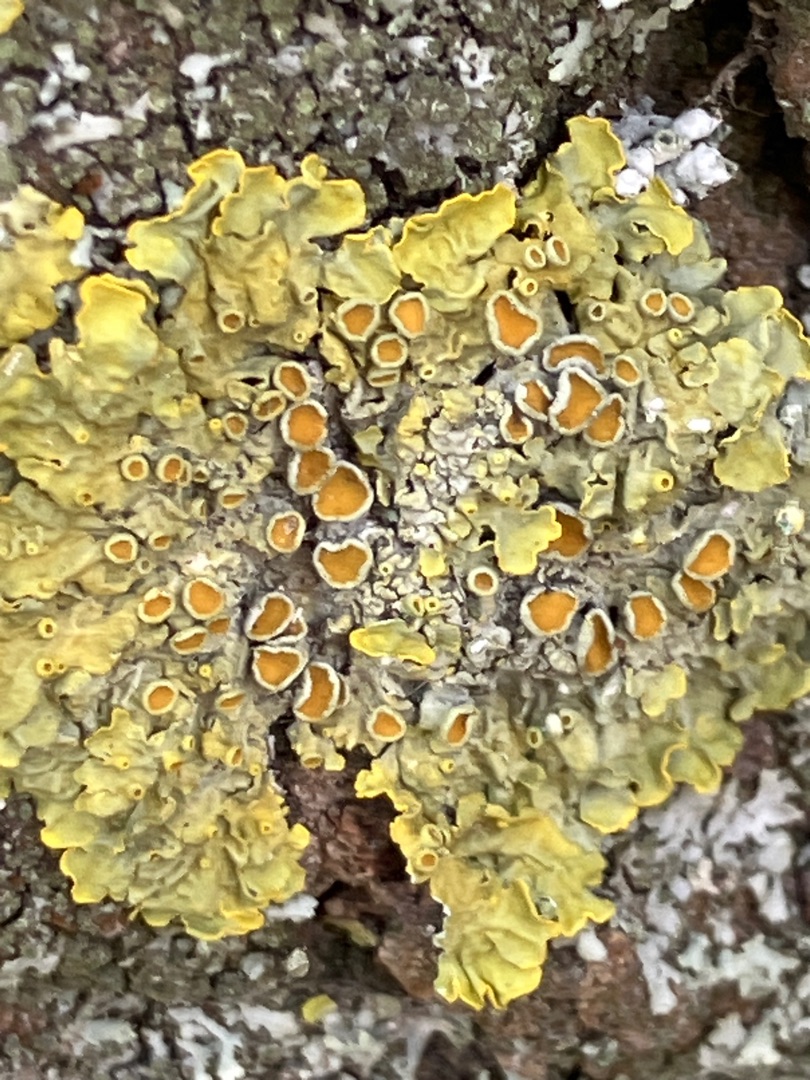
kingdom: Fungi
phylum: Ascomycota
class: Lecanoromycetes
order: Teloschistales
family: Teloschistaceae
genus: Xanthoria
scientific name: Xanthoria parietina
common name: Almindelig væggelav
